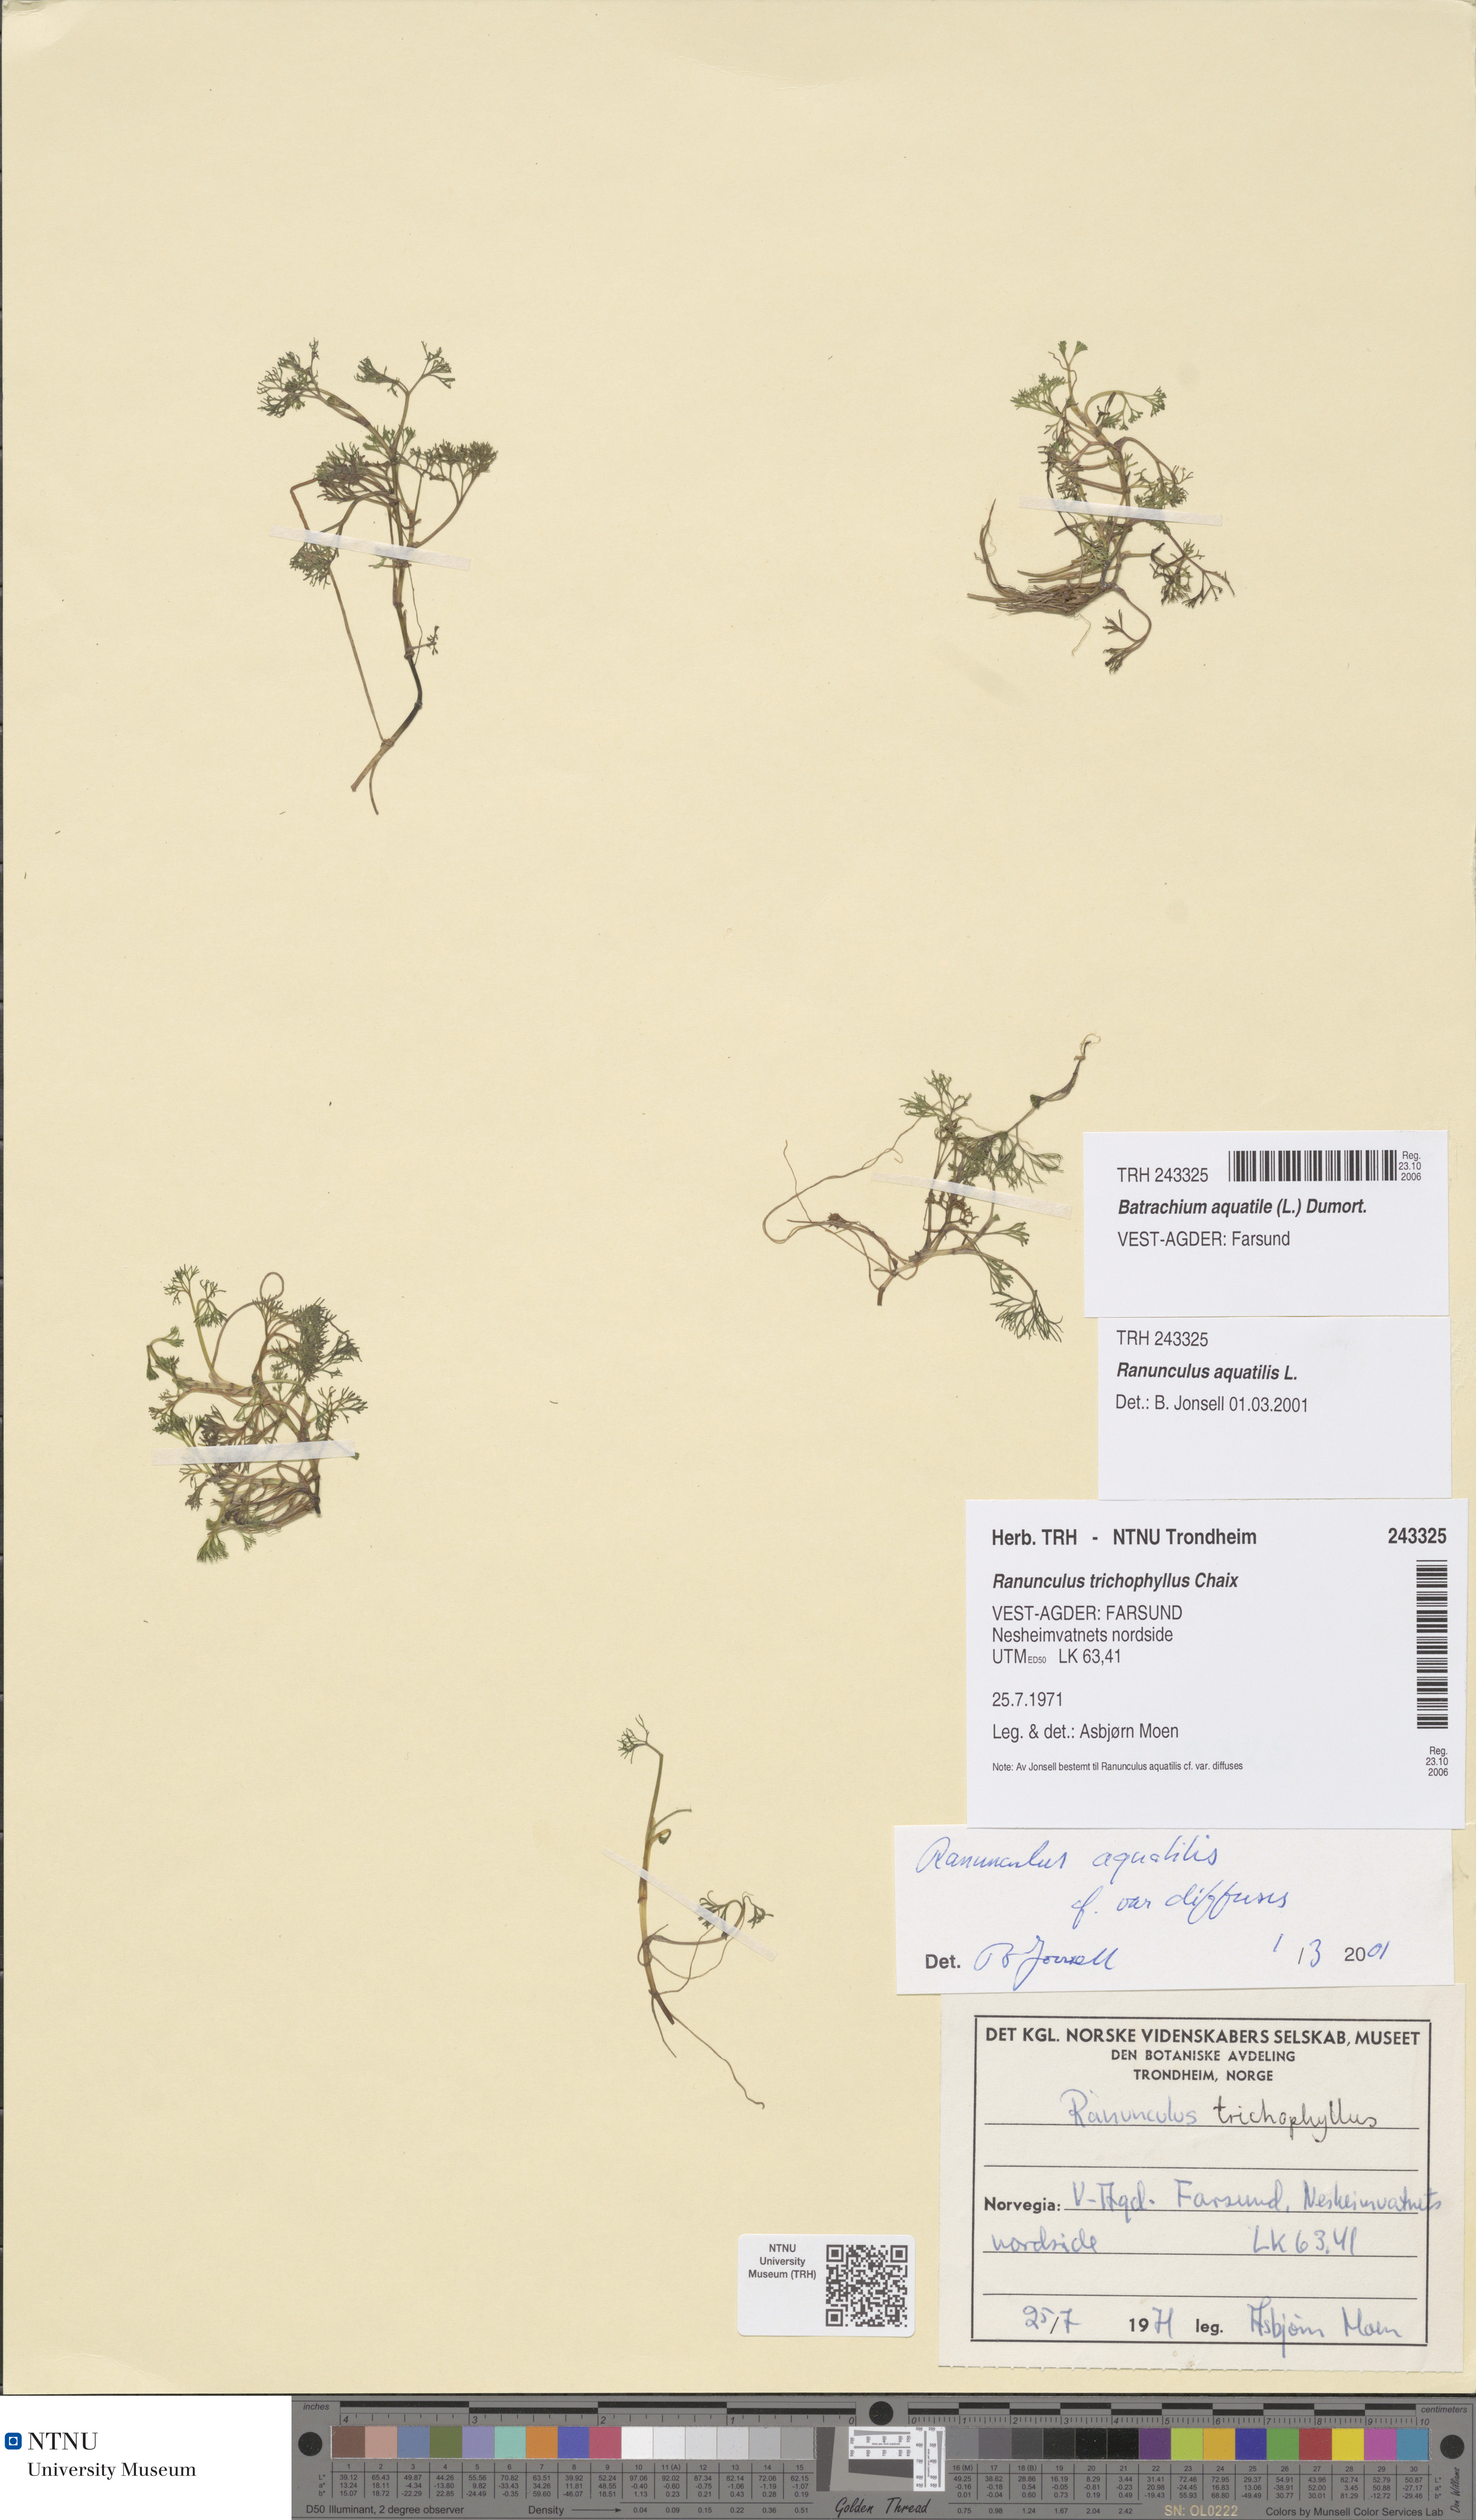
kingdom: Plantae
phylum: Tracheophyta
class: Magnoliopsida
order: Ranunculales
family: Ranunculaceae
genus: Ranunculus
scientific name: Ranunculus aquatilis
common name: Common water-crowfoot
